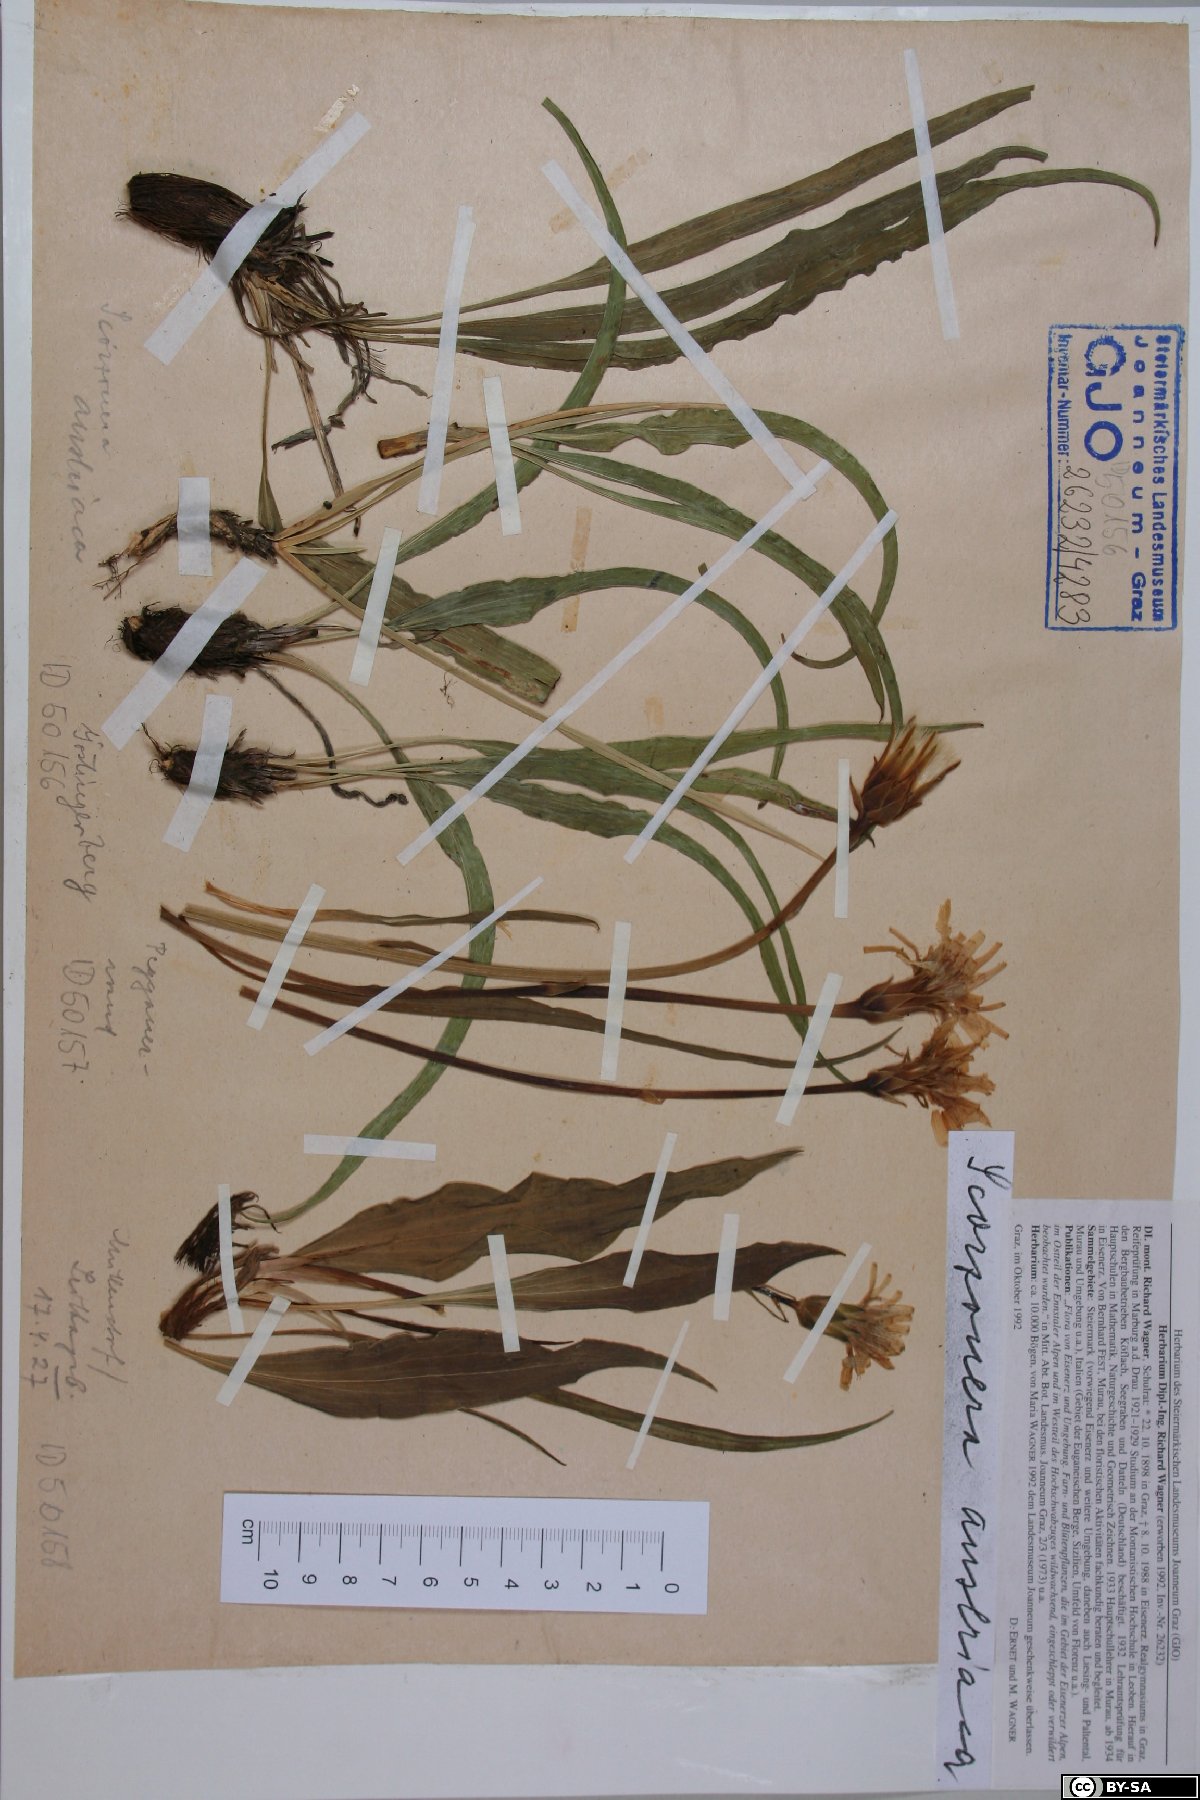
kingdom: Plantae
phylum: Tracheophyta
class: Magnoliopsida
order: Asterales
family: Asteraceae
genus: Takhtajaniantha
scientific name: Takhtajaniantha austriaca
